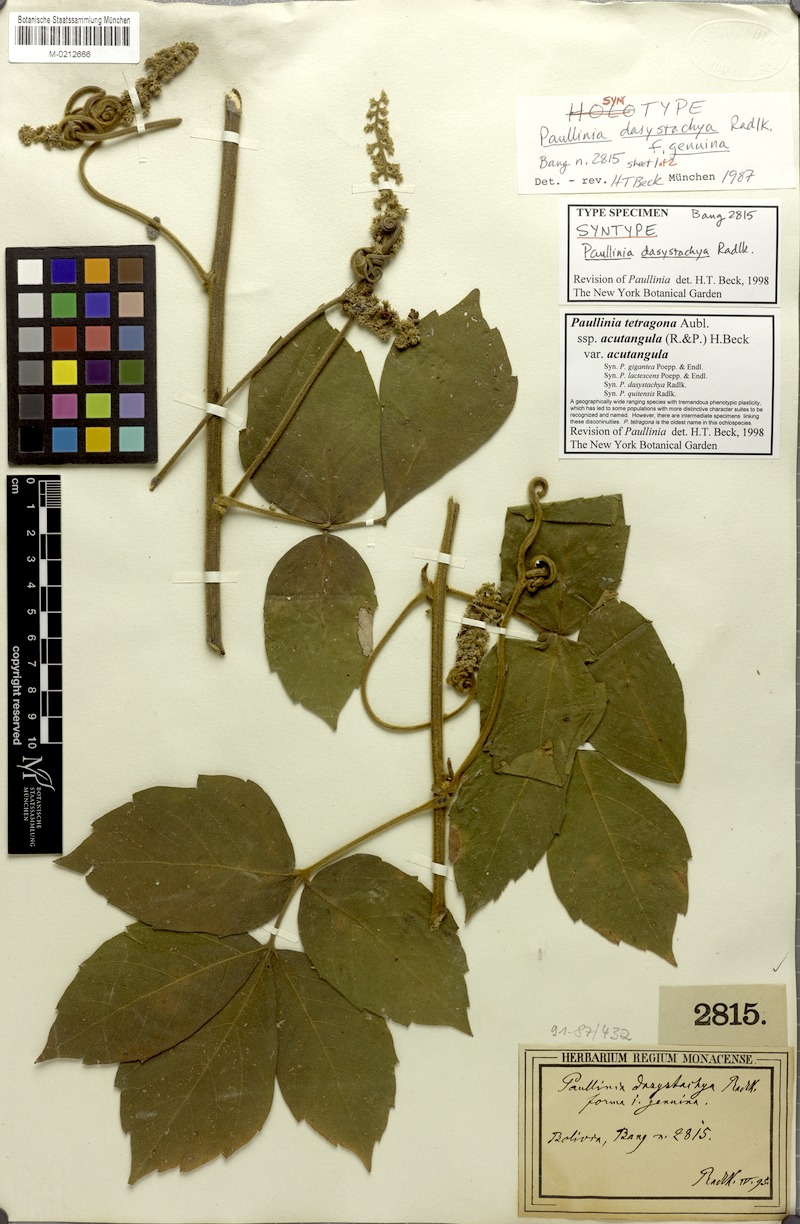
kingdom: Plantae
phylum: Tracheophyta
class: Magnoliopsida
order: Sapindales
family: Sapindaceae
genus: Paullinia
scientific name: Paullinia tetragona
